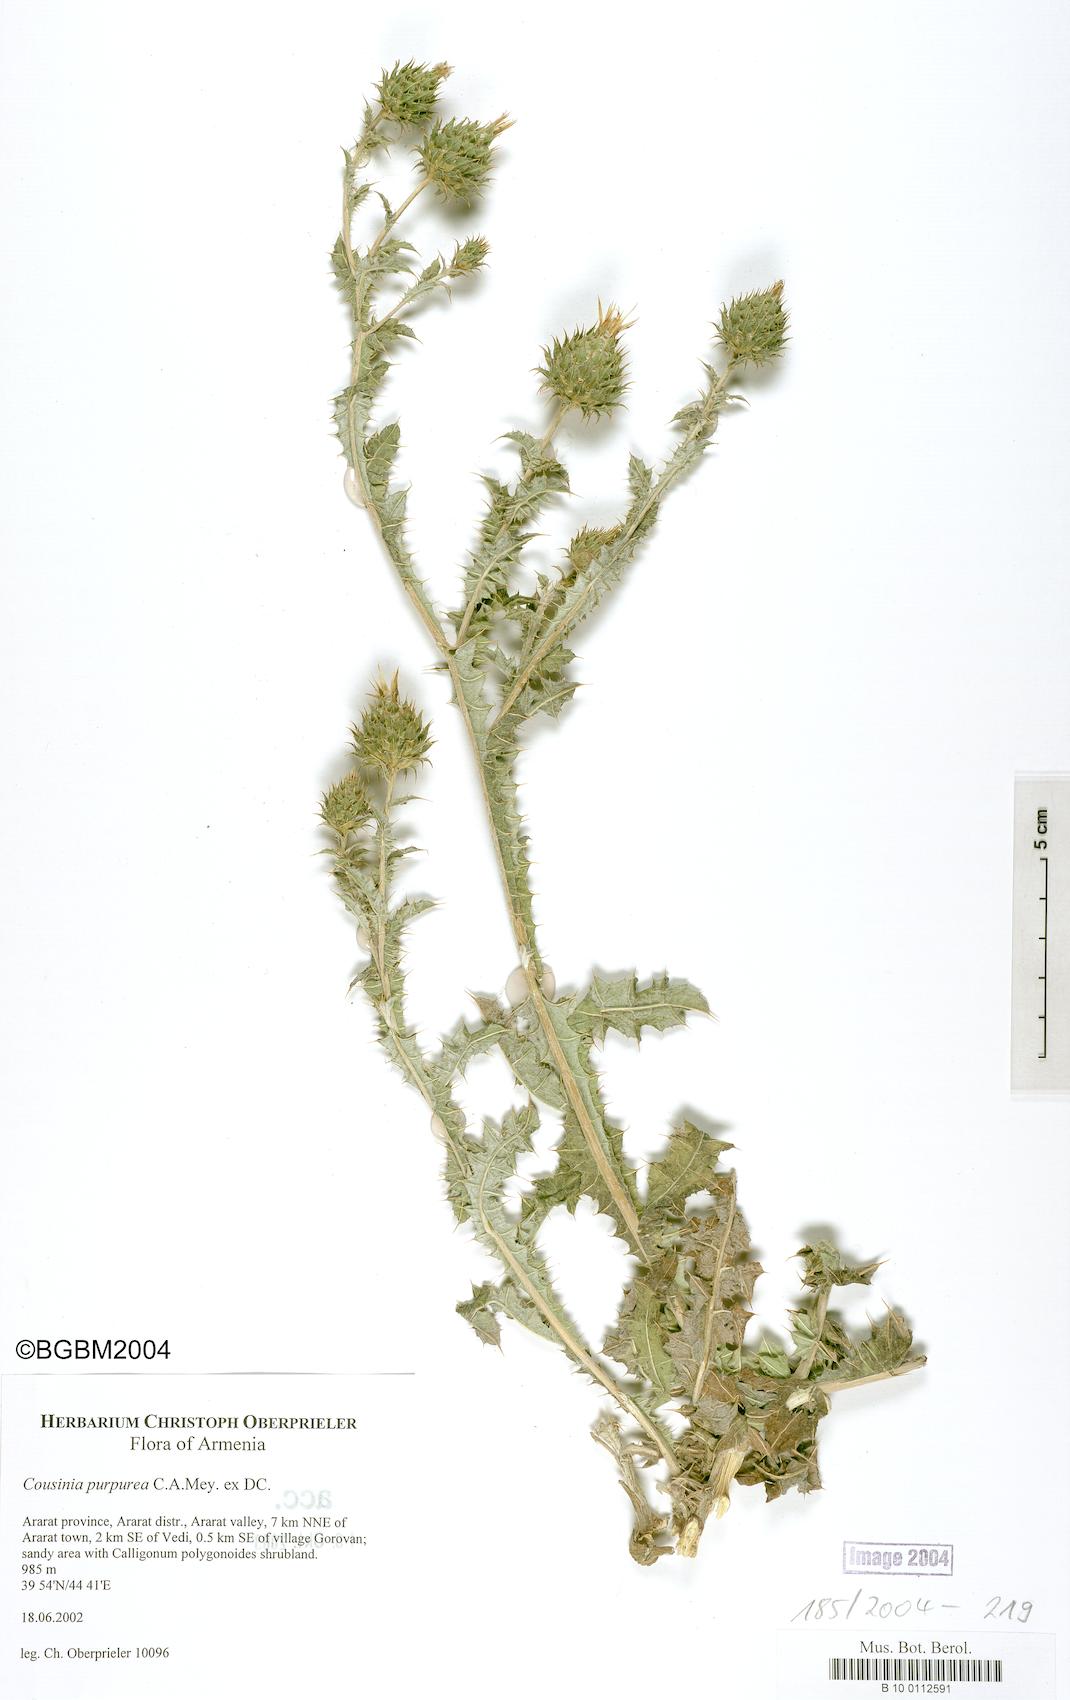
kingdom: Plantae
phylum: Tracheophyta
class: Magnoliopsida
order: Asterales
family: Asteraceae
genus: Cousinia
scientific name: Cousinia purpurea
